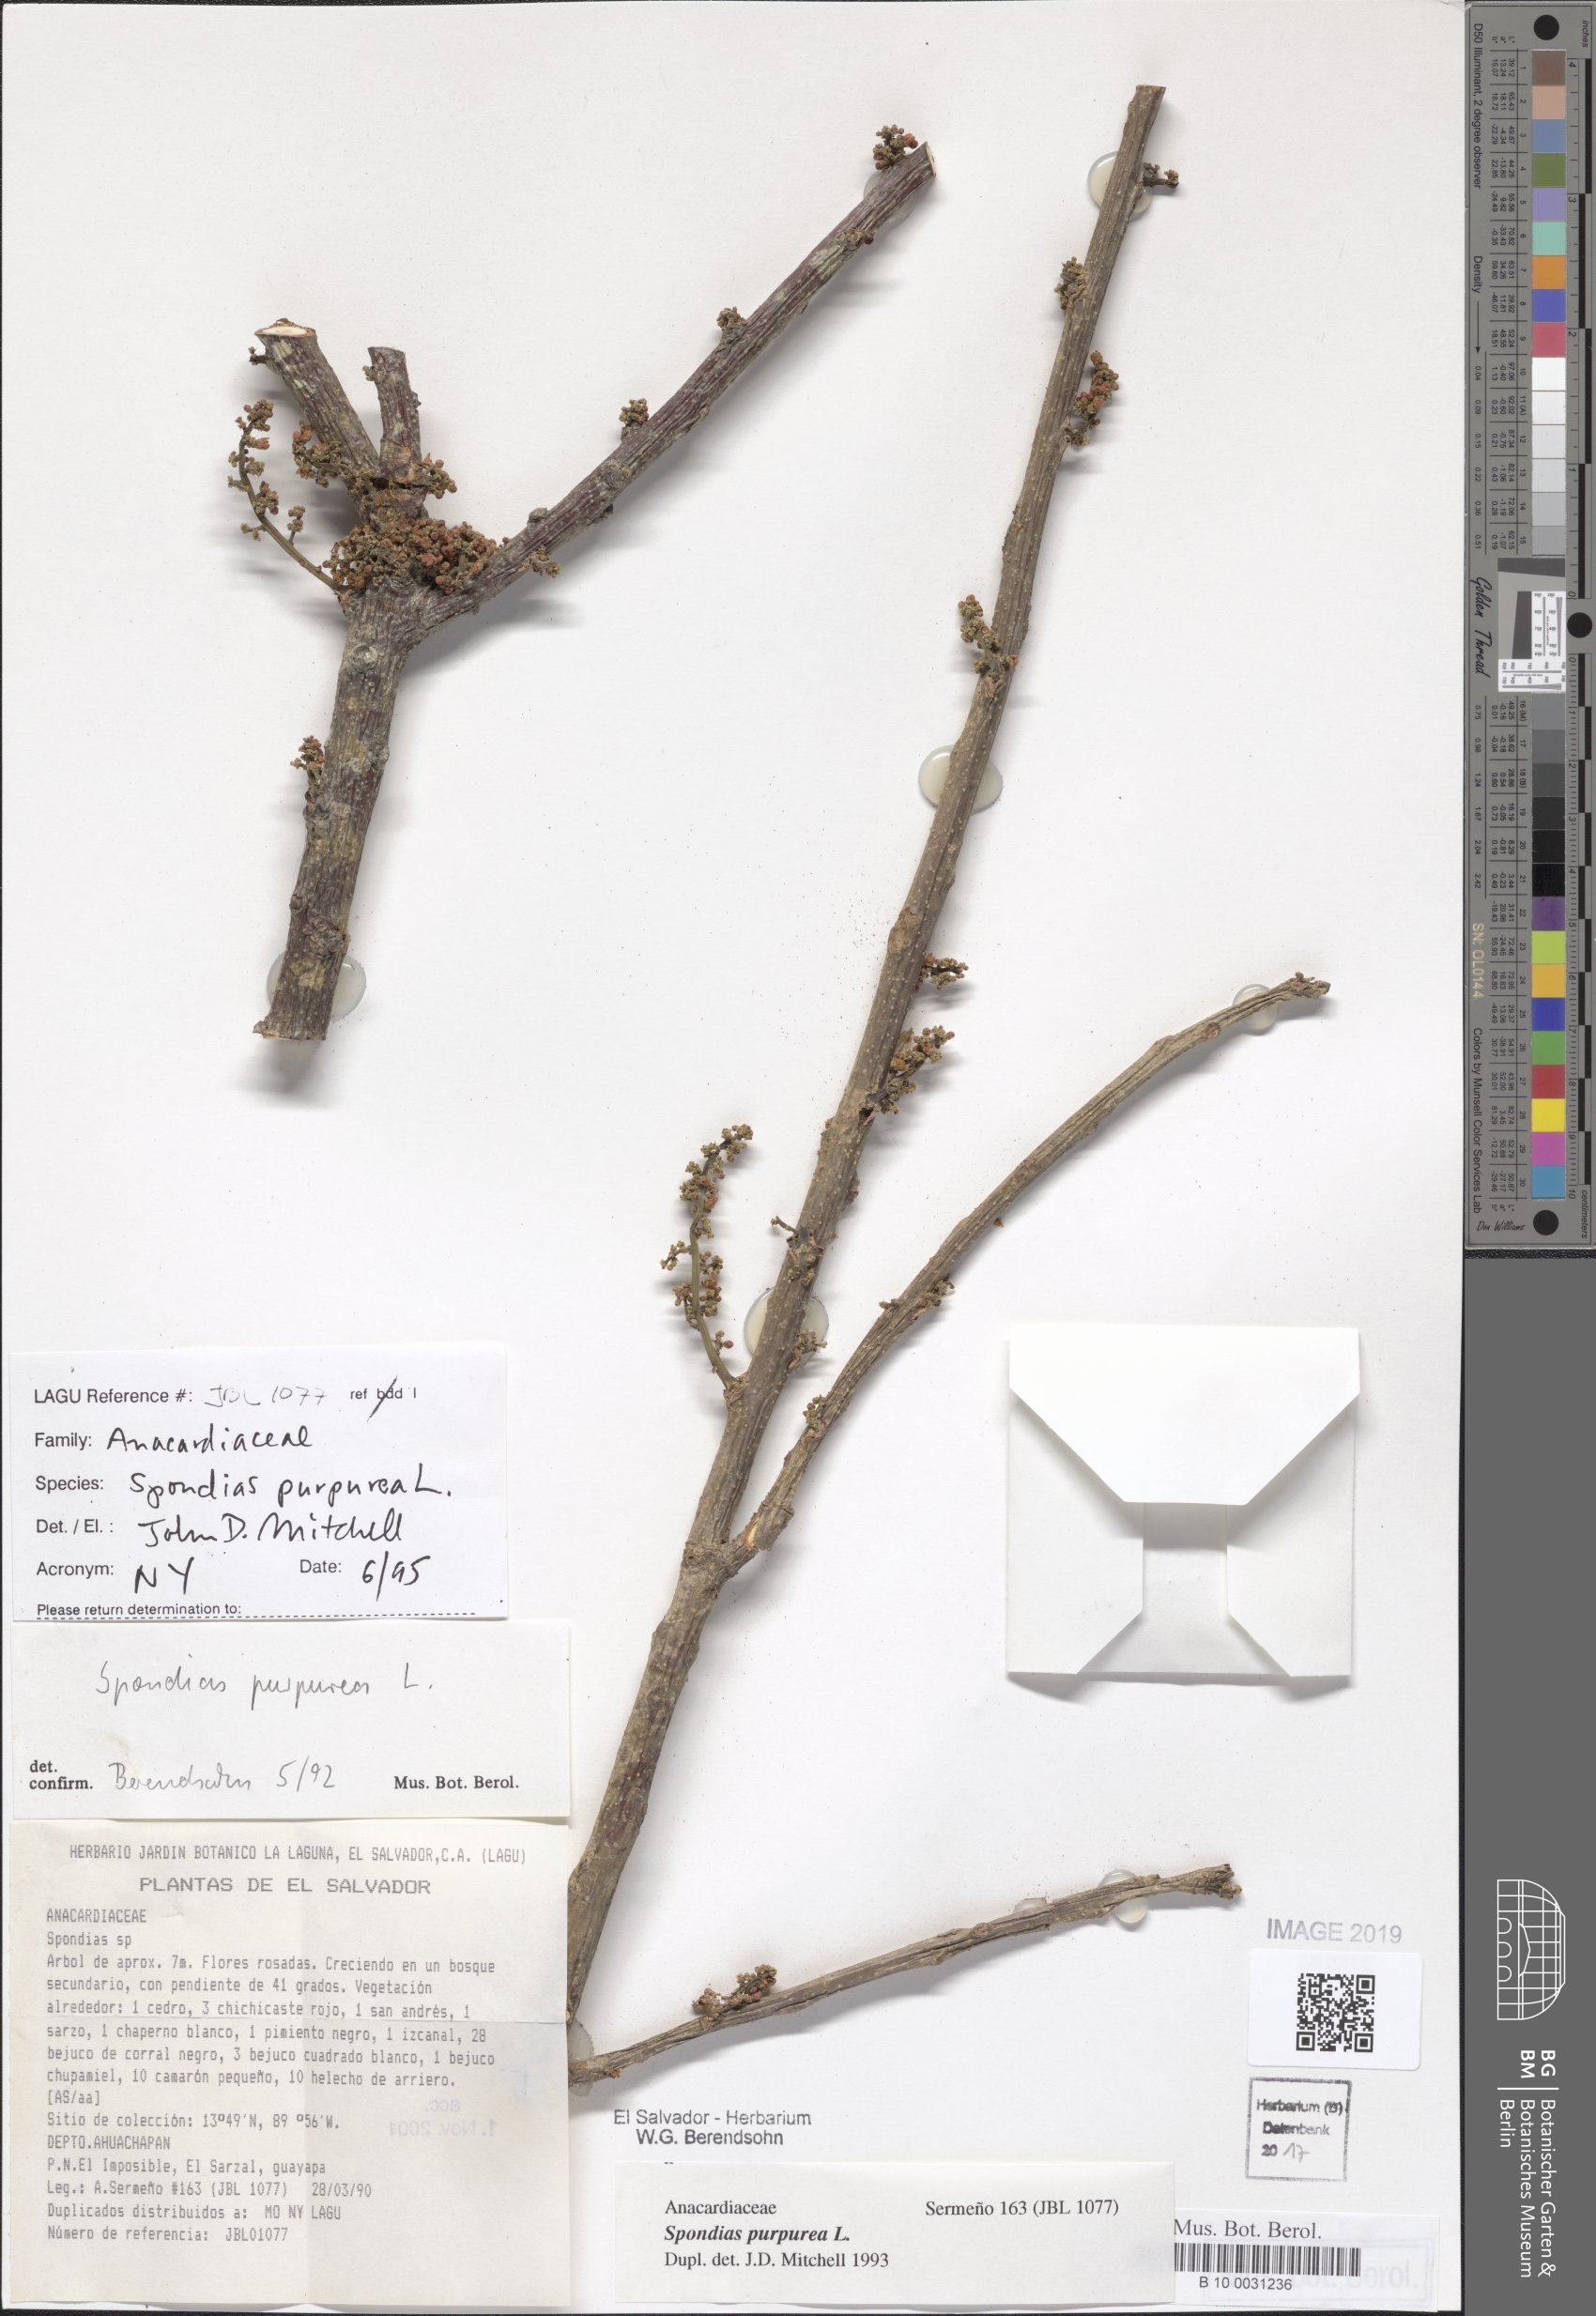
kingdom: Plantae
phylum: Tracheophyta
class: Magnoliopsida
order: Sapindales
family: Anacardiaceae
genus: Spondias
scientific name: Spondias purpurea
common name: Purple mombin
